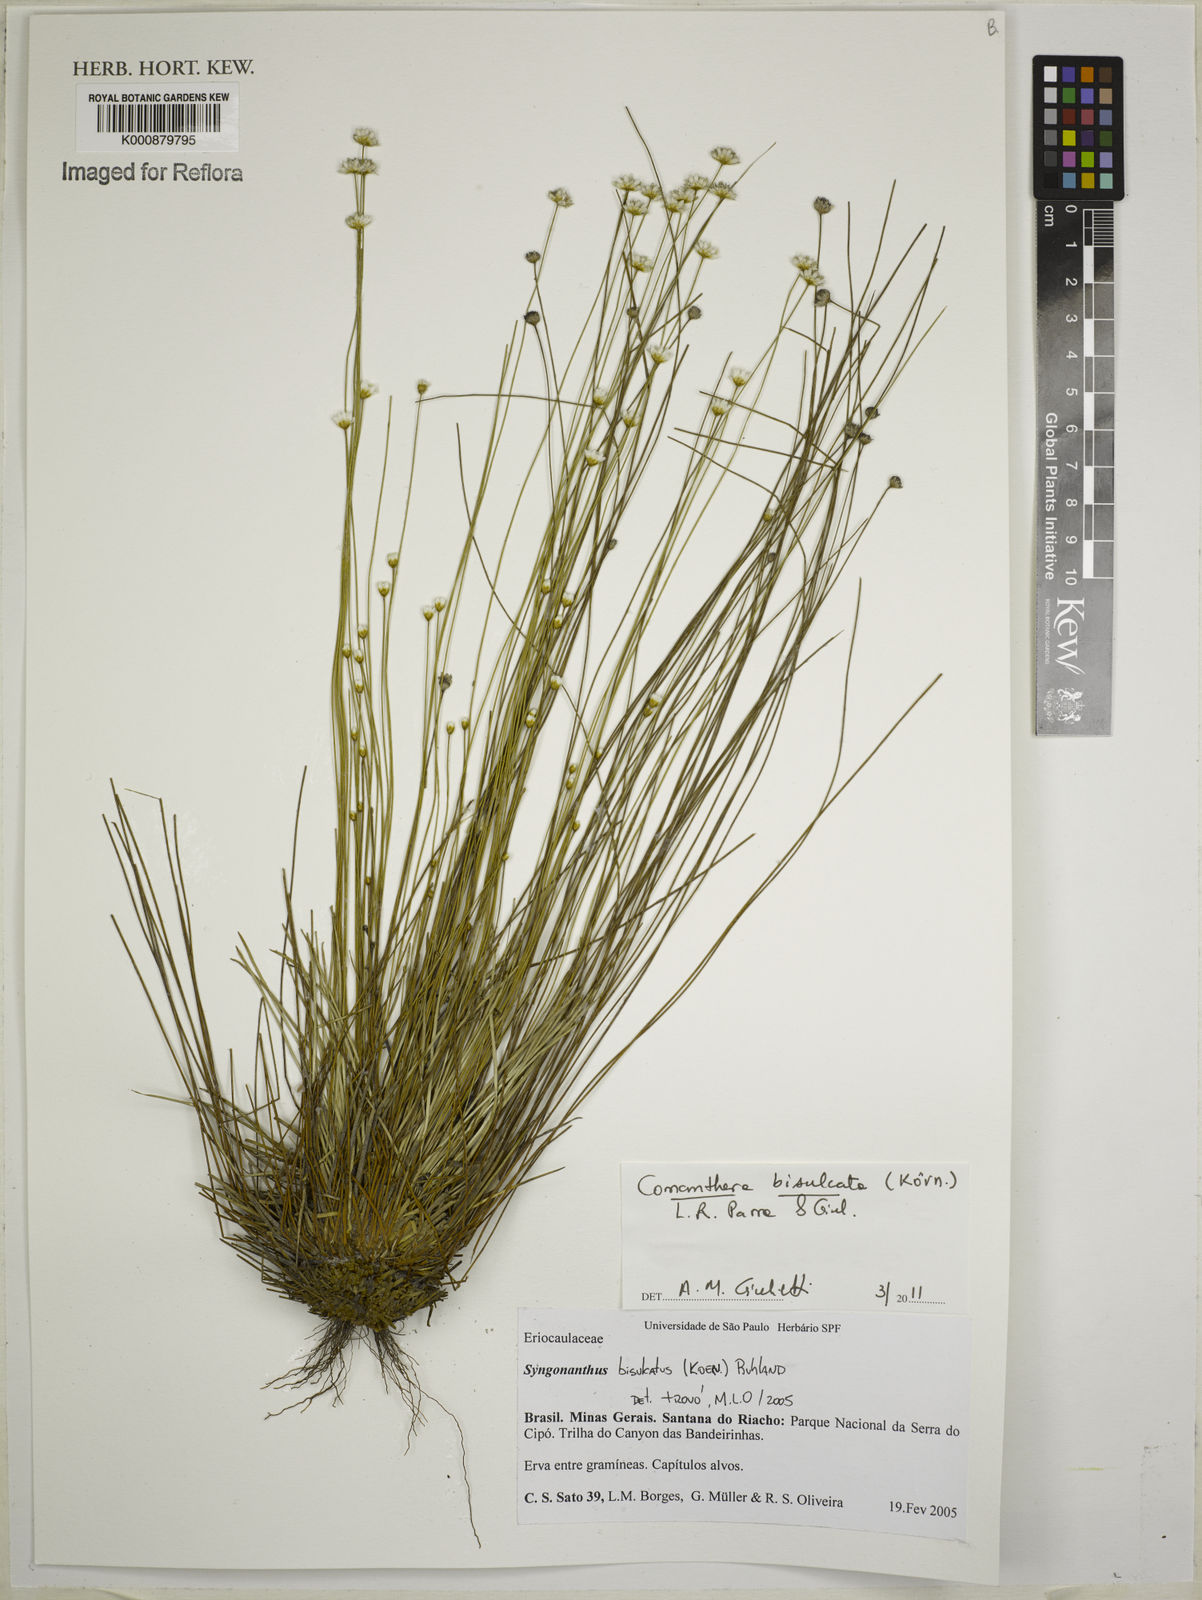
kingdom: Plantae
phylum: Tracheophyta
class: Liliopsida
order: Poales
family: Eriocaulaceae
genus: Comanthera
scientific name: Comanthera
